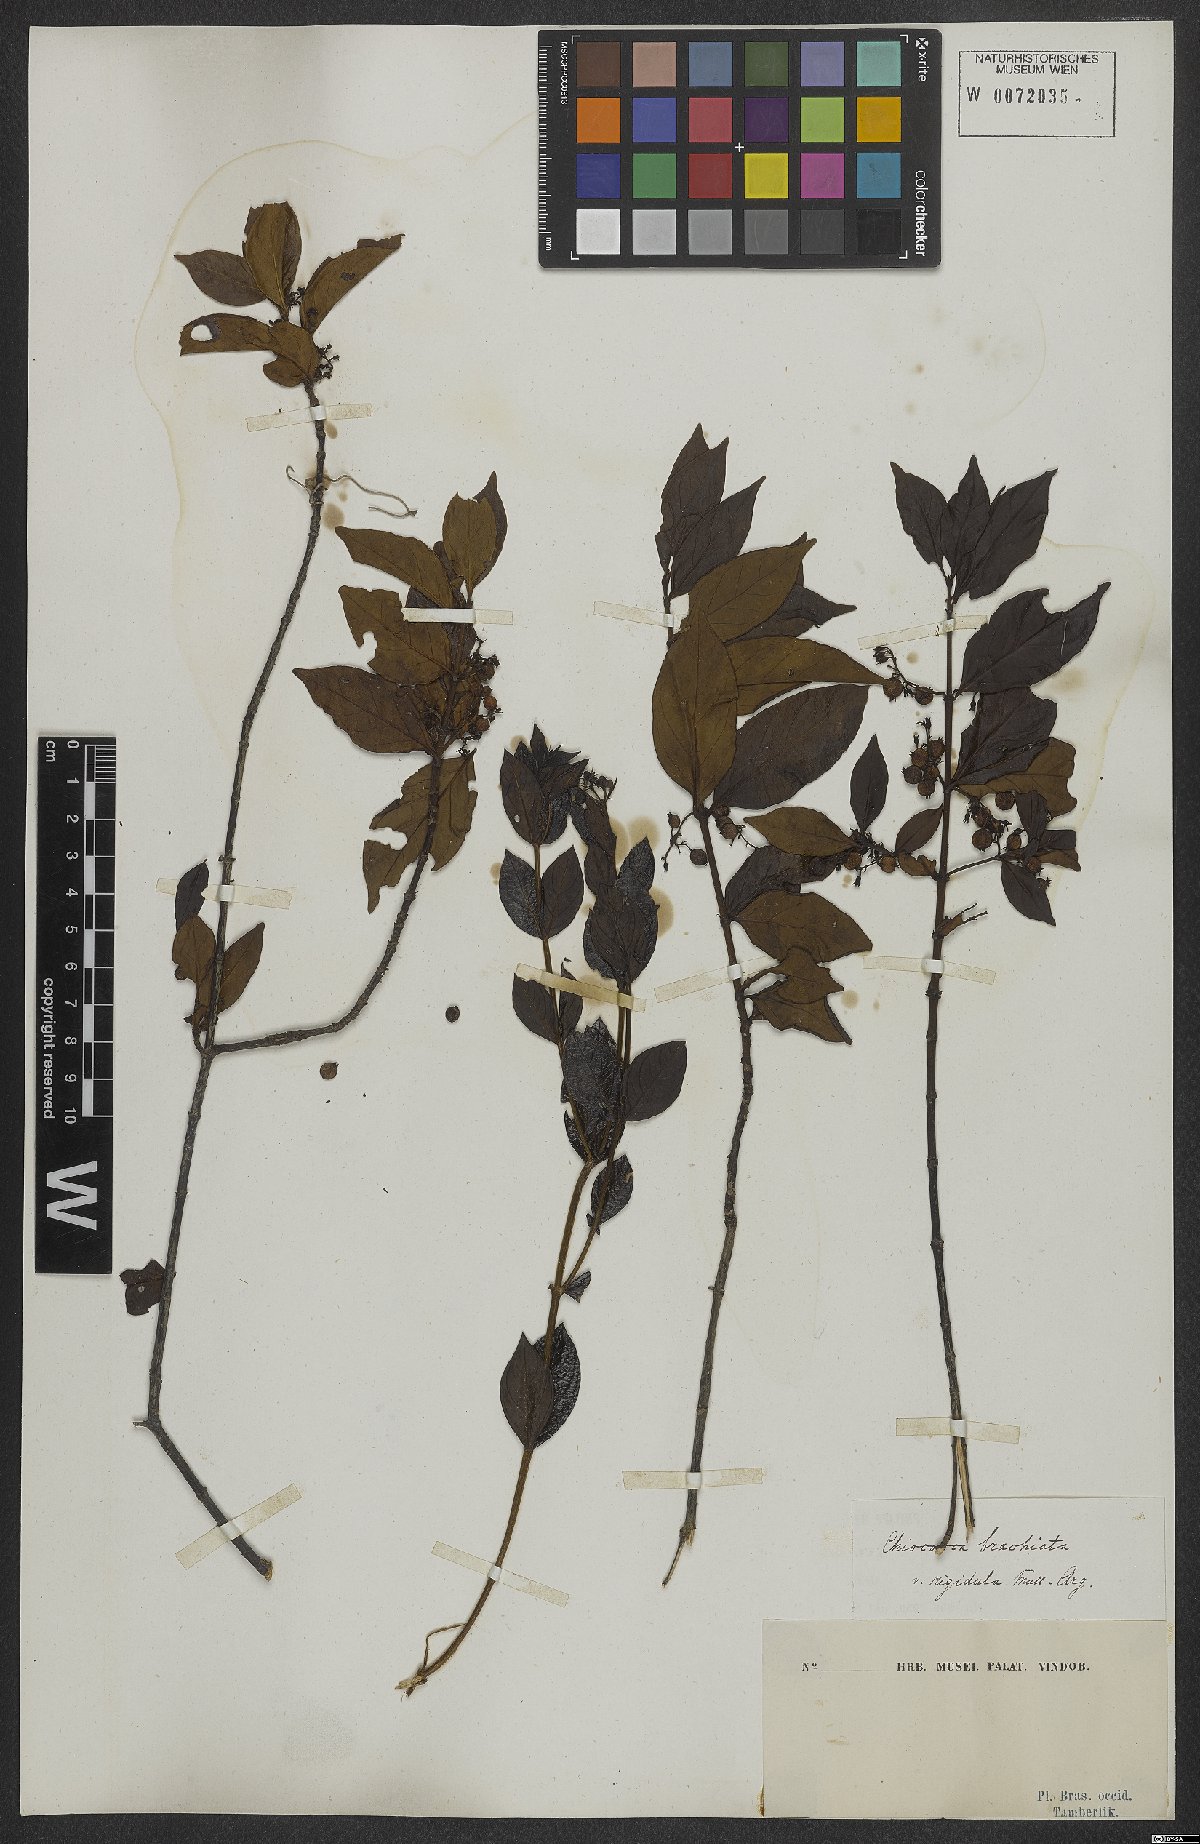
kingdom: Plantae
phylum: Tracheophyta
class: Magnoliopsida
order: Gentianales
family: Rubiaceae
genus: Chiococca
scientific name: Chiococca alba
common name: Snowberry
